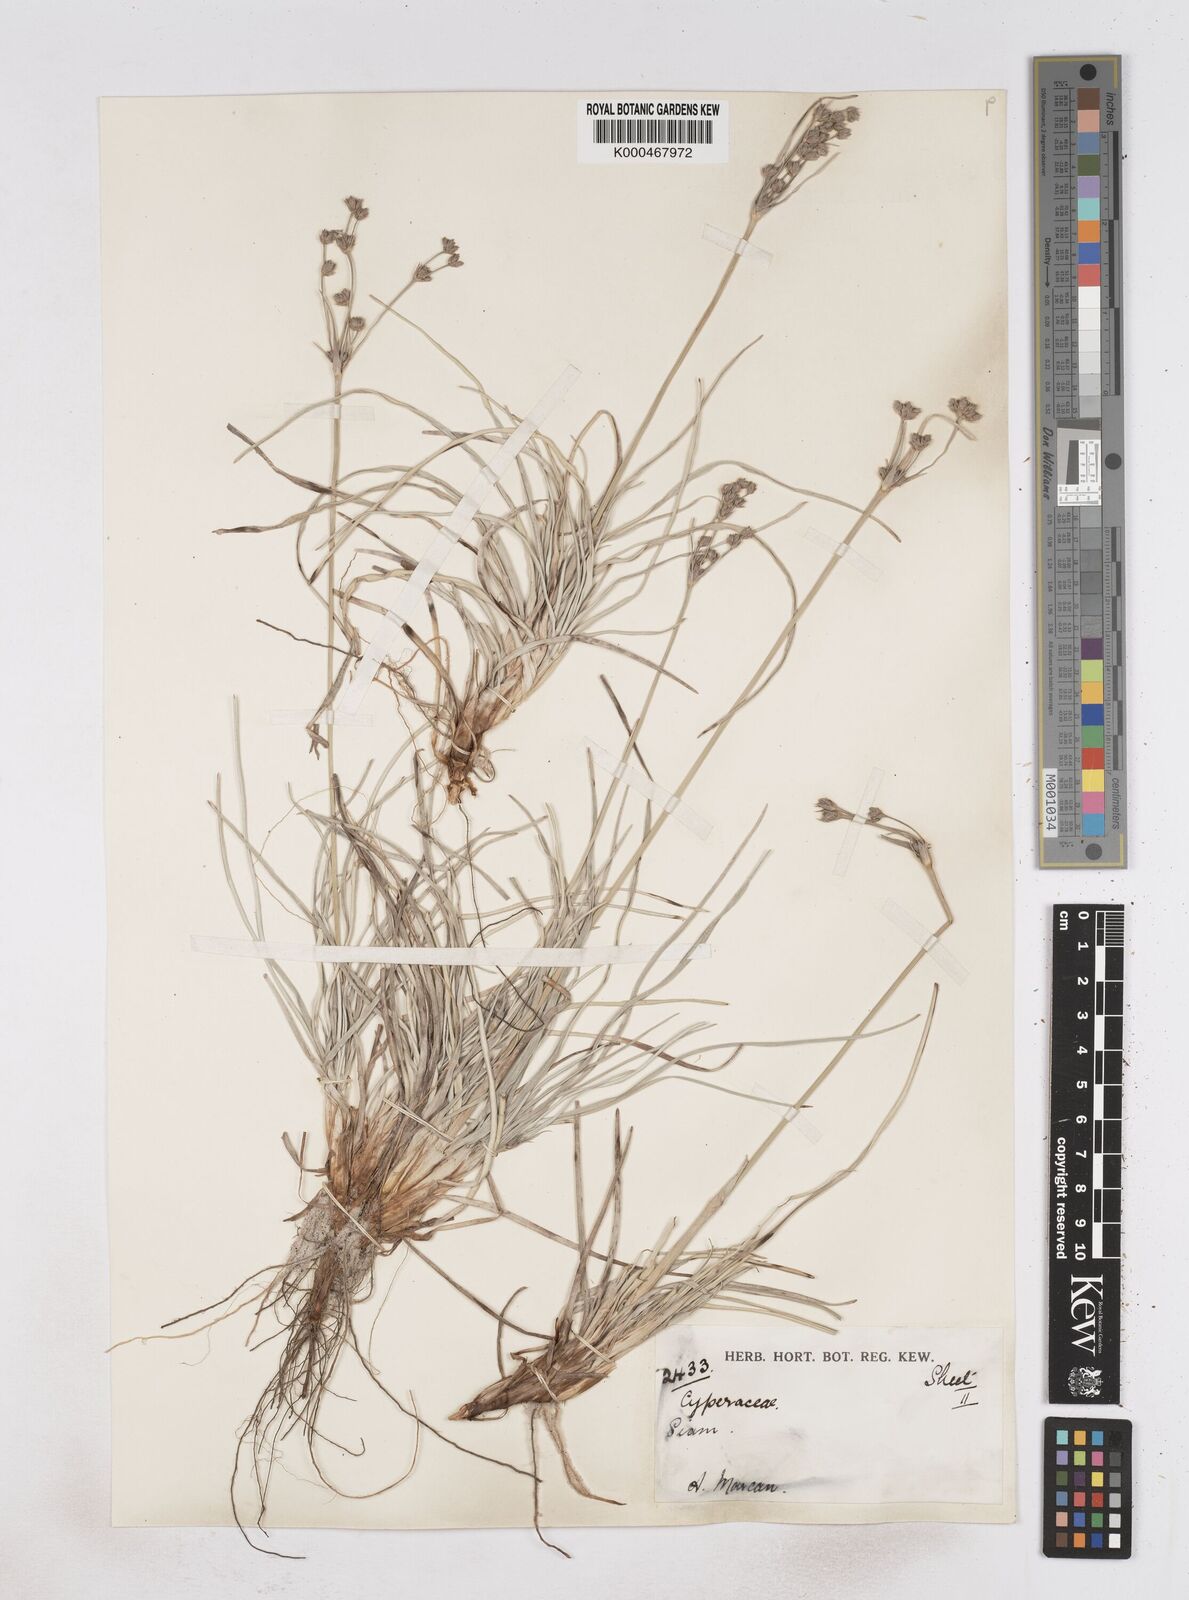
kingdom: Plantae
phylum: Tracheophyta
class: Liliopsida
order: Poales
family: Cyperaceae
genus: Fimbristylis
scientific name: Fimbristylis sericea
